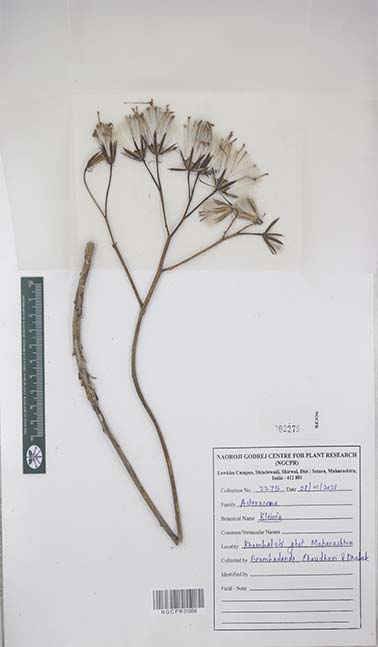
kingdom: Plantae
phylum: Tracheophyta
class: Magnoliopsida
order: Asterales
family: Asteraceae
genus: Kleinia
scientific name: Kleinia
